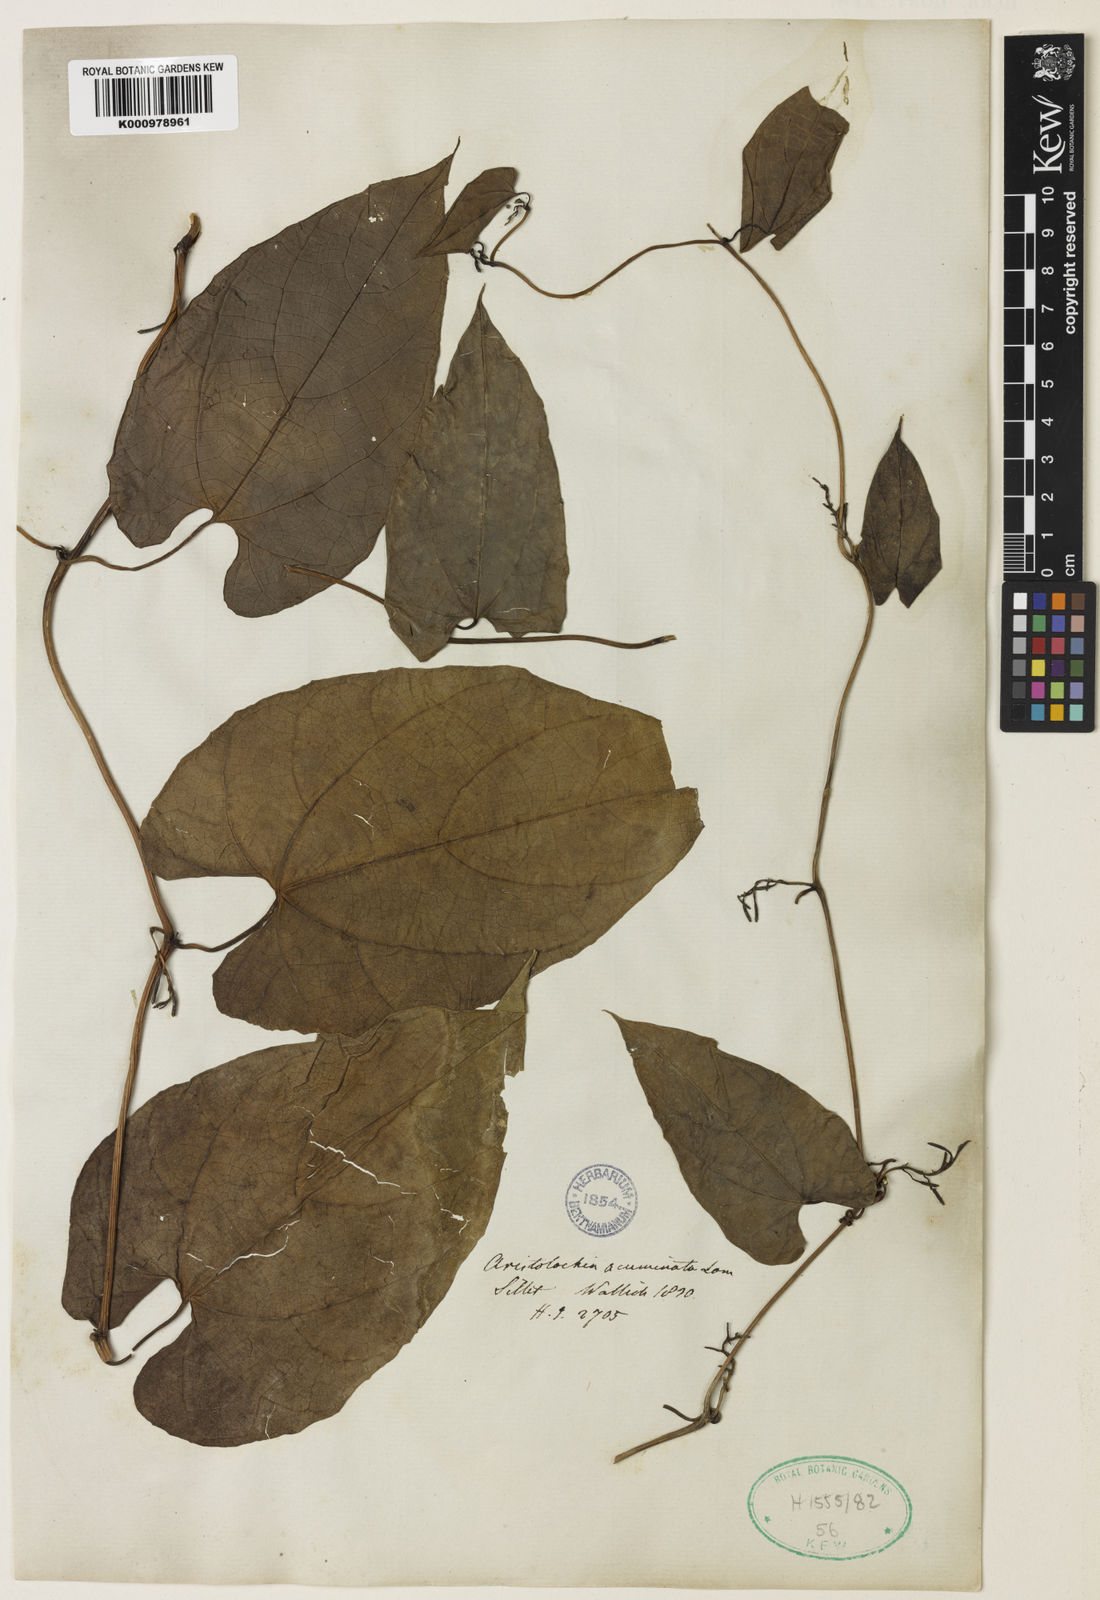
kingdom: Plantae
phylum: Tracheophyta
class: Magnoliopsida
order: Piperales
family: Aristolochiaceae
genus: Aristolochia
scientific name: Aristolochia acuminata
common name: Indian birthwort
